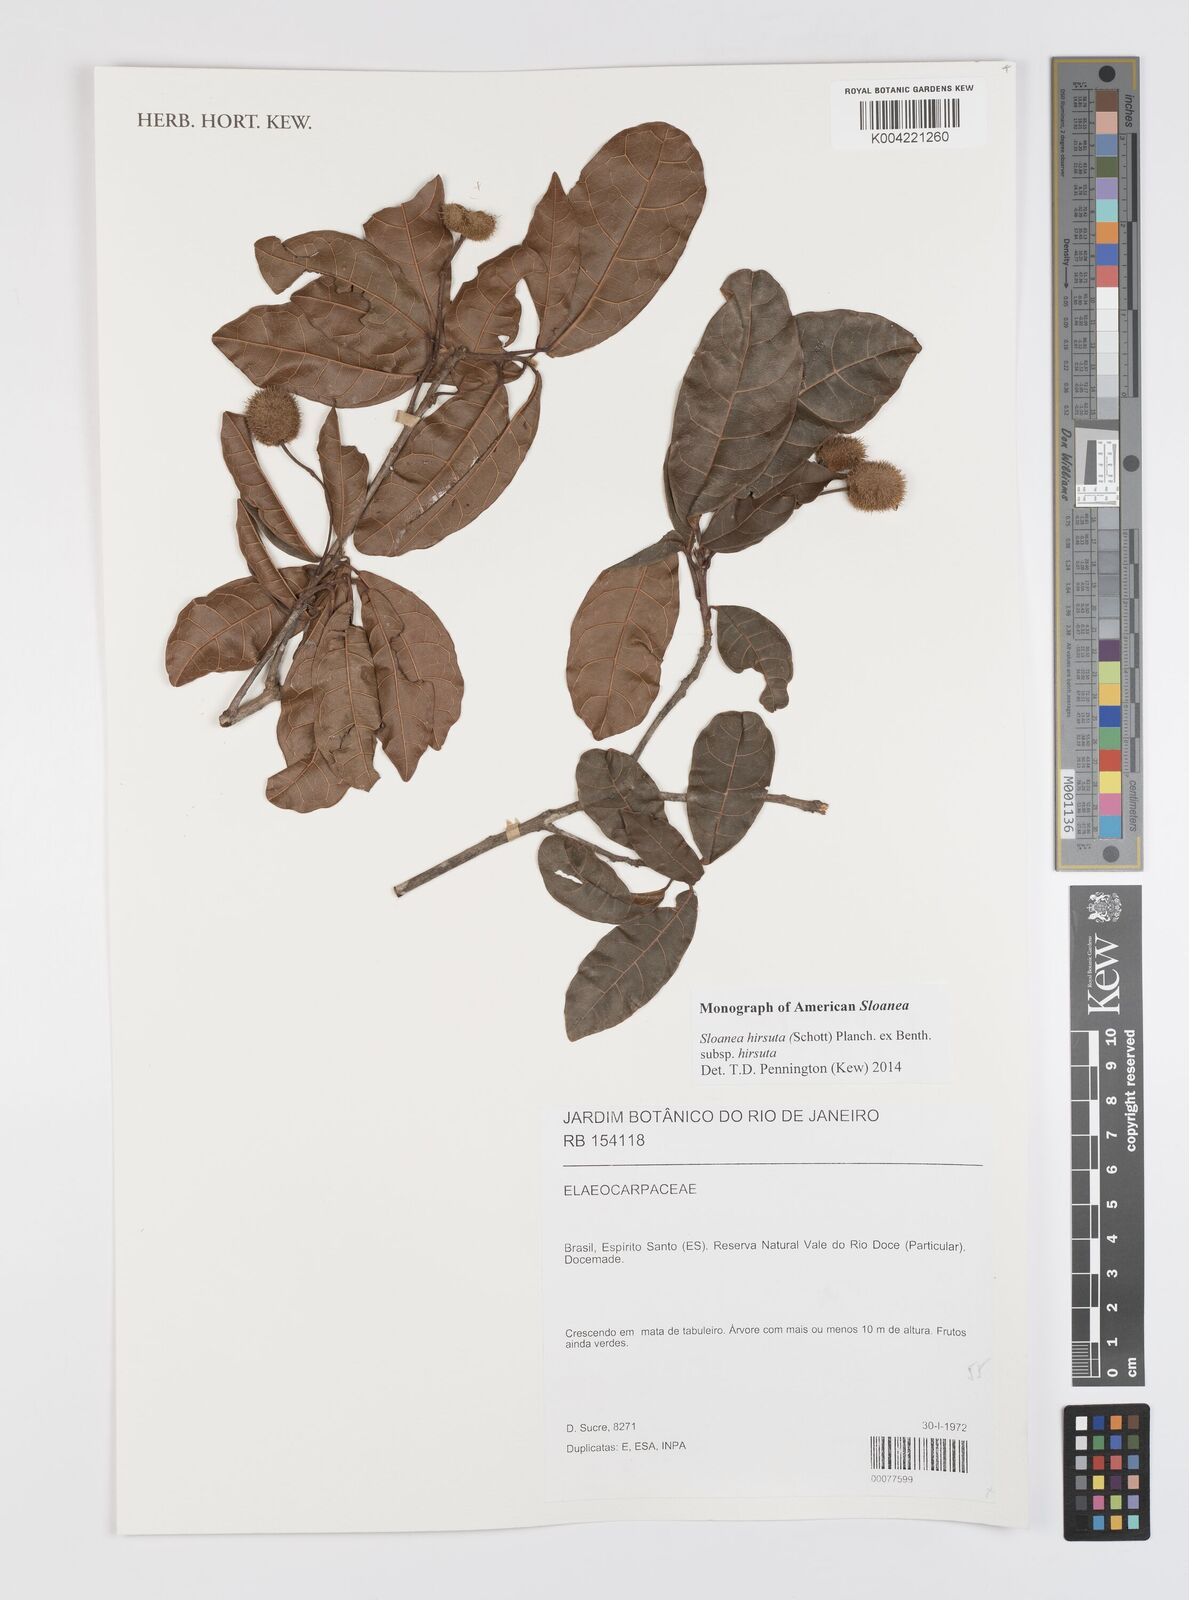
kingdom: Plantae
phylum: Tracheophyta
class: Magnoliopsida
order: Oxalidales
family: Elaeocarpaceae
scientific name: Elaeocarpaceae
